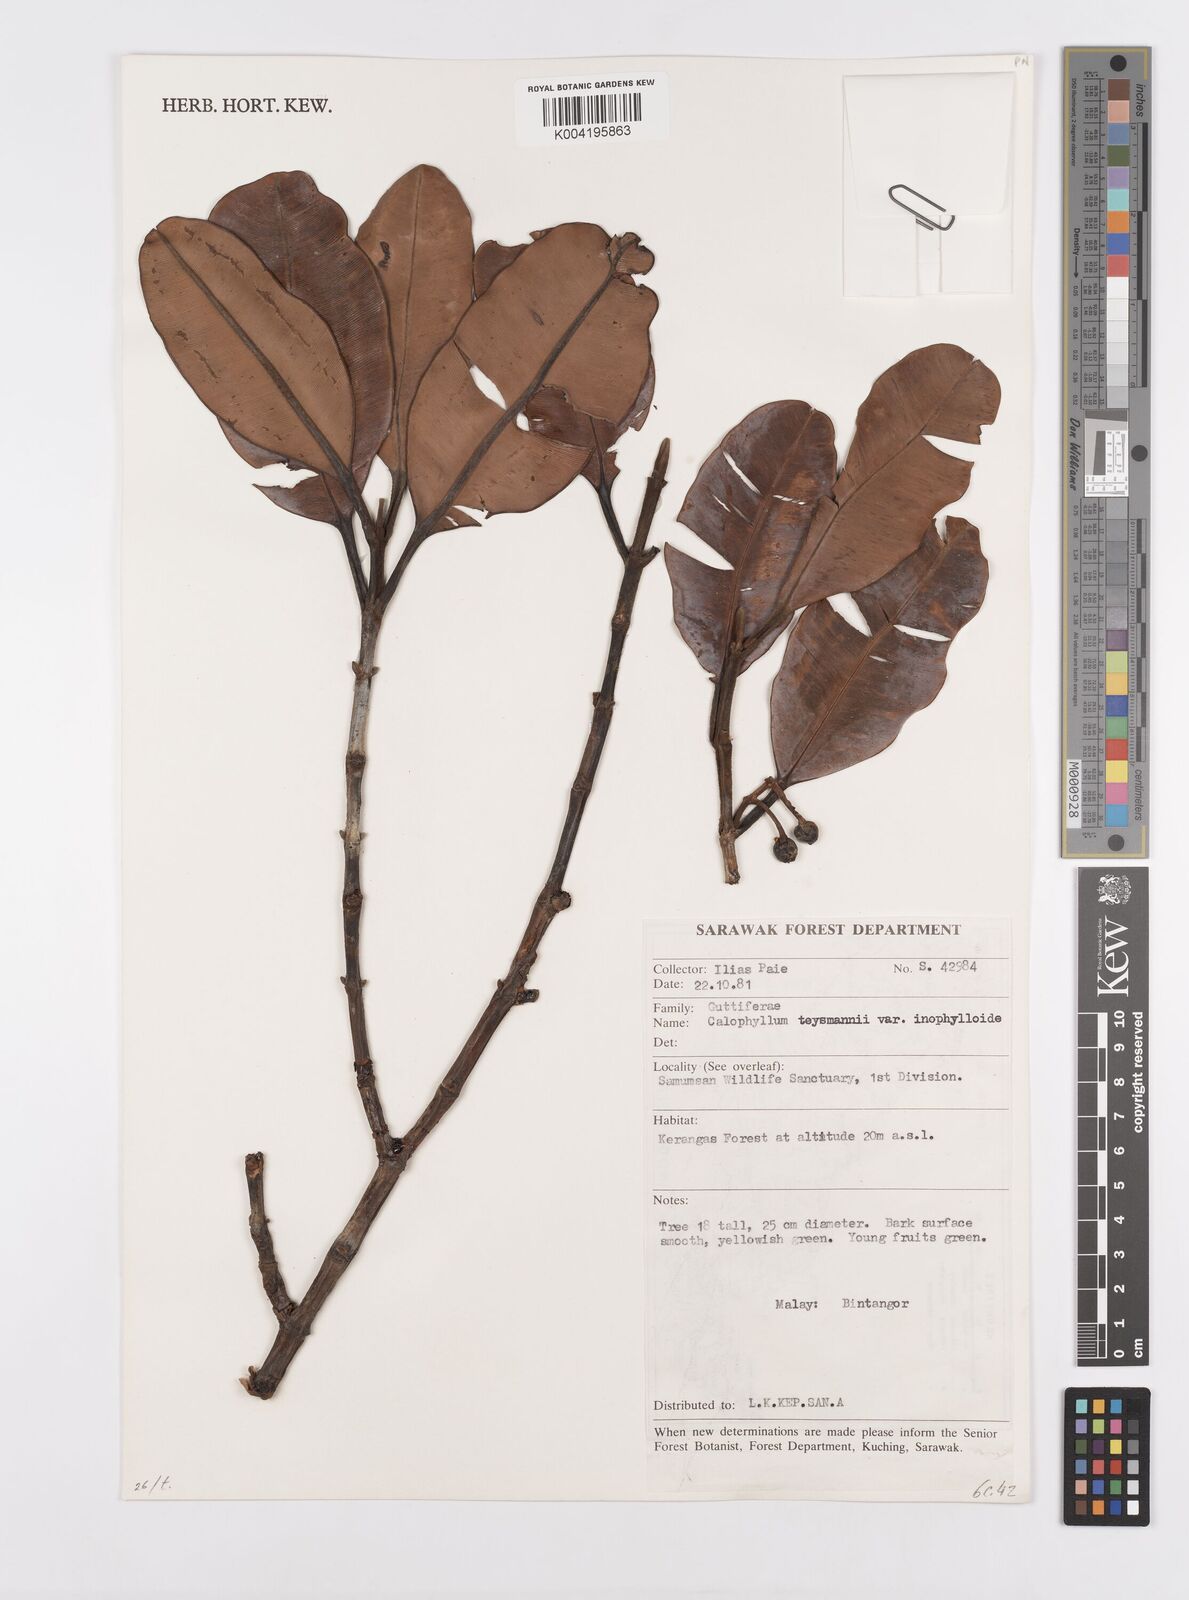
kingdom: Plantae
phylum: Tracheophyta
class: Magnoliopsida
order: Malpighiales
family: Calophyllaceae
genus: Calophyllum
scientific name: Calophyllum teysmannii
